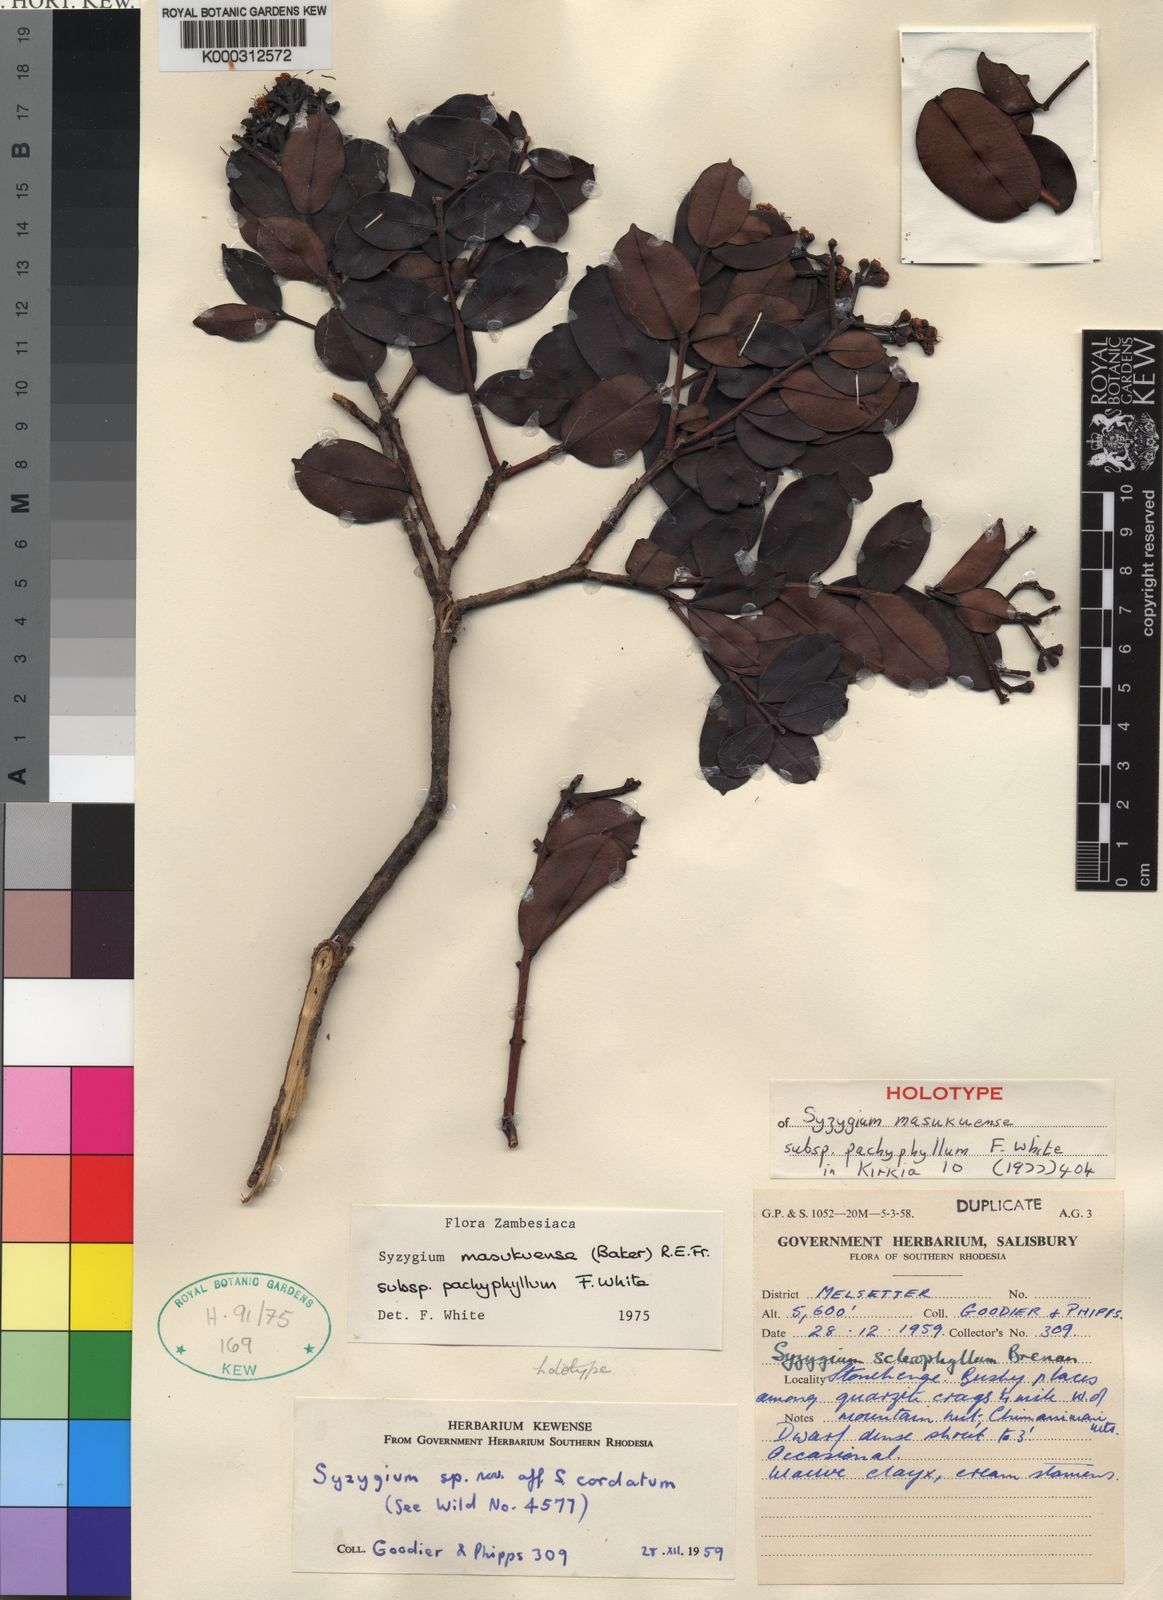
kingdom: Plantae
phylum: Tracheophyta
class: Magnoliopsida
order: Myrtales
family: Myrtaceae
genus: Syzygium
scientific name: Syzygium chimanimaniense
